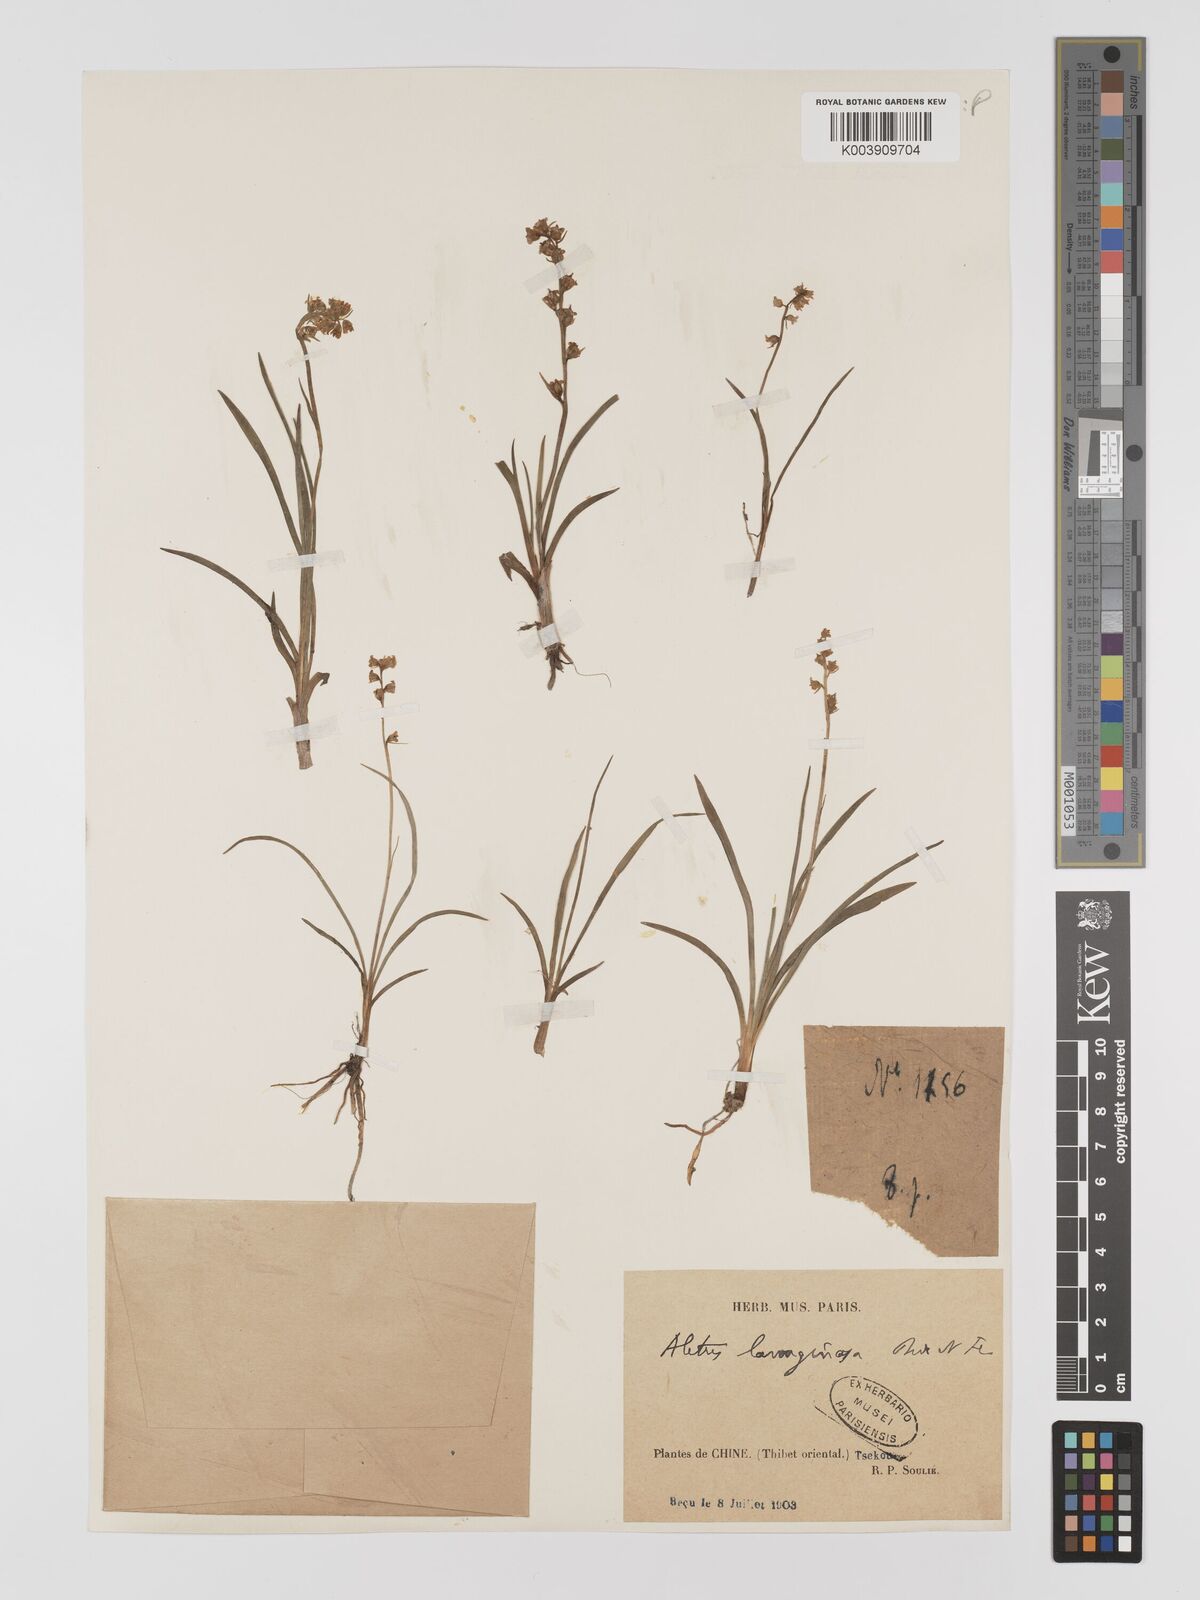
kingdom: Plantae
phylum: Tracheophyta
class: Liliopsida
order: Dioscoreales
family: Nartheciaceae
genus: Aletris
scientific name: Aletris pauciflora
